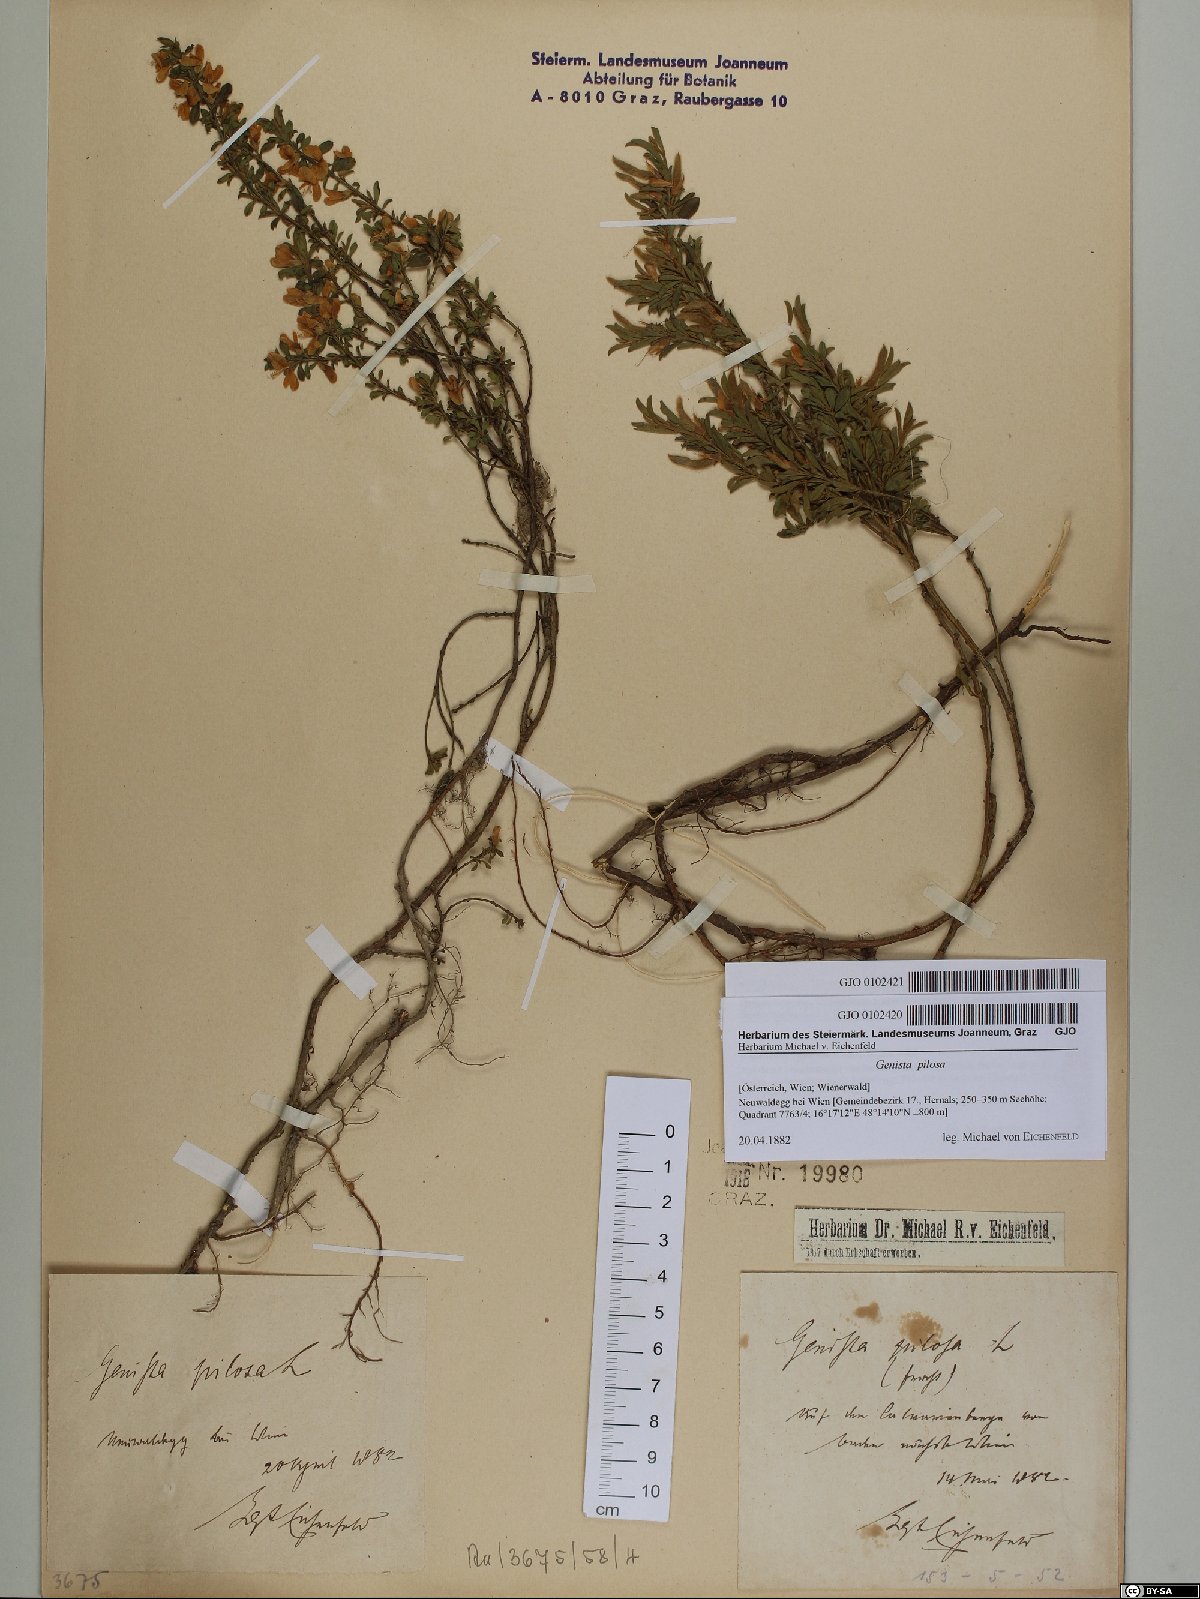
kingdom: Plantae
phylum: Tracheophyta
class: Magnoliopsida
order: Fabales
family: Fabaceae
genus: Genista
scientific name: Genista pilosa
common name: Hairy greenweed
